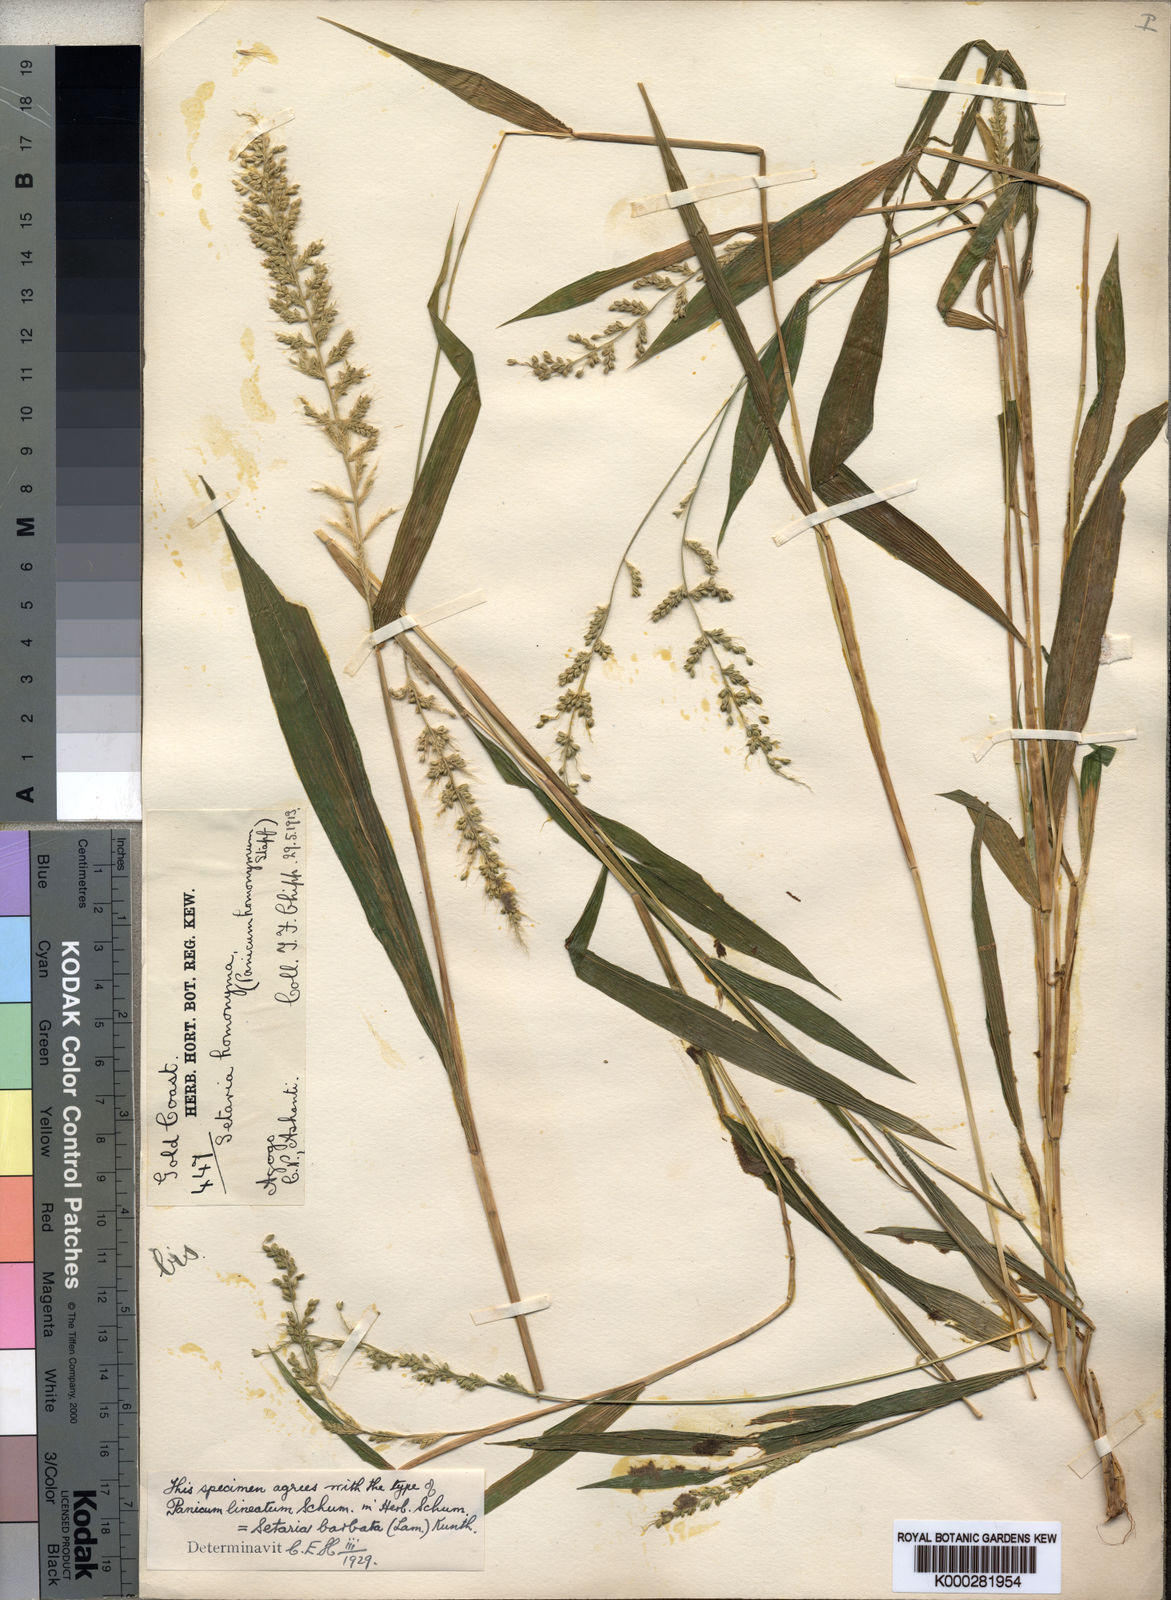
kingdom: Plantae
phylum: Tracheophyta
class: Liliopsida
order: Poales
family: Poaceae
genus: Setaria
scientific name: Setaria barbata
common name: East indian bristlegrass
